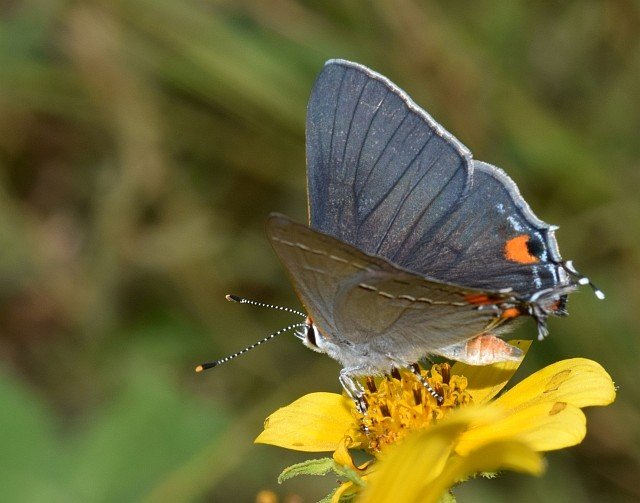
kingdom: Animalia
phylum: Arthropoda
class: Insecta
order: Lepidoptera
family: Lycaenidae
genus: Strymon
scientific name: Strymon melinus
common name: Gray Hairstreak
